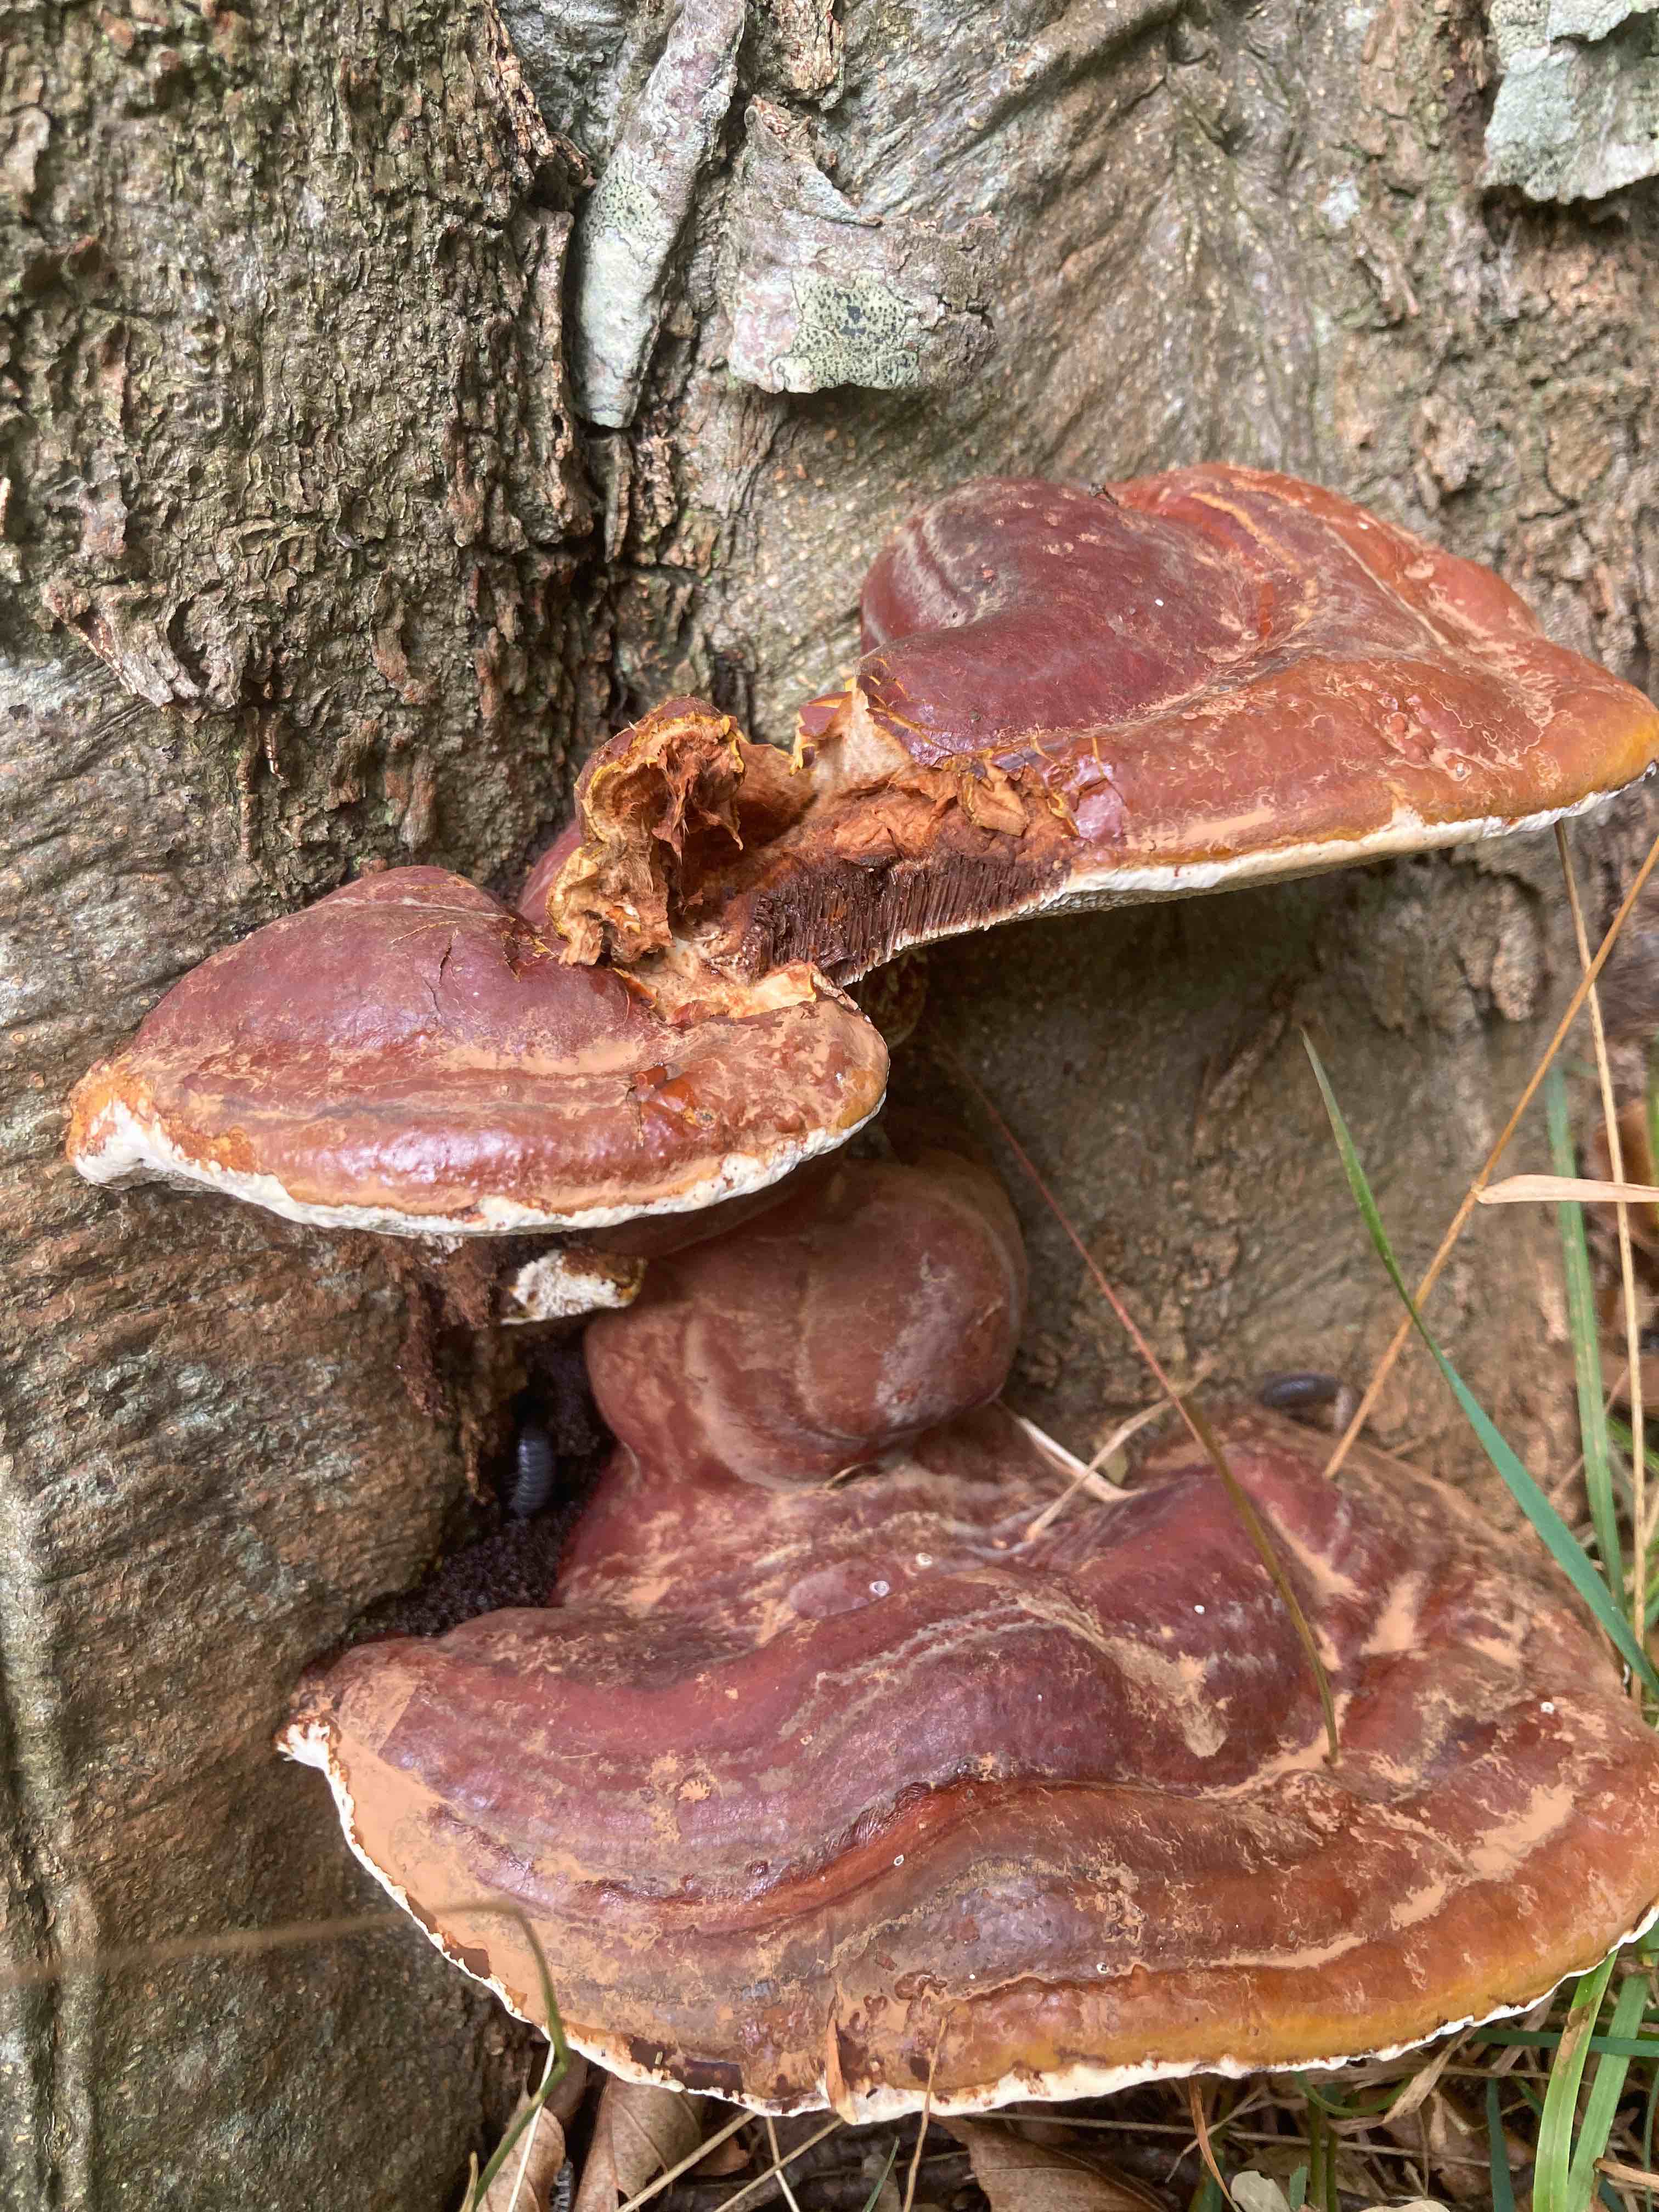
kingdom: Fungi
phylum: Basidiomycota
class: Agaricomycetes
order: Polyporales
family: Polyporaceae
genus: Ganoderma
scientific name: Ganoderma resinaceum
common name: gyldenbrun lakporesvamp
